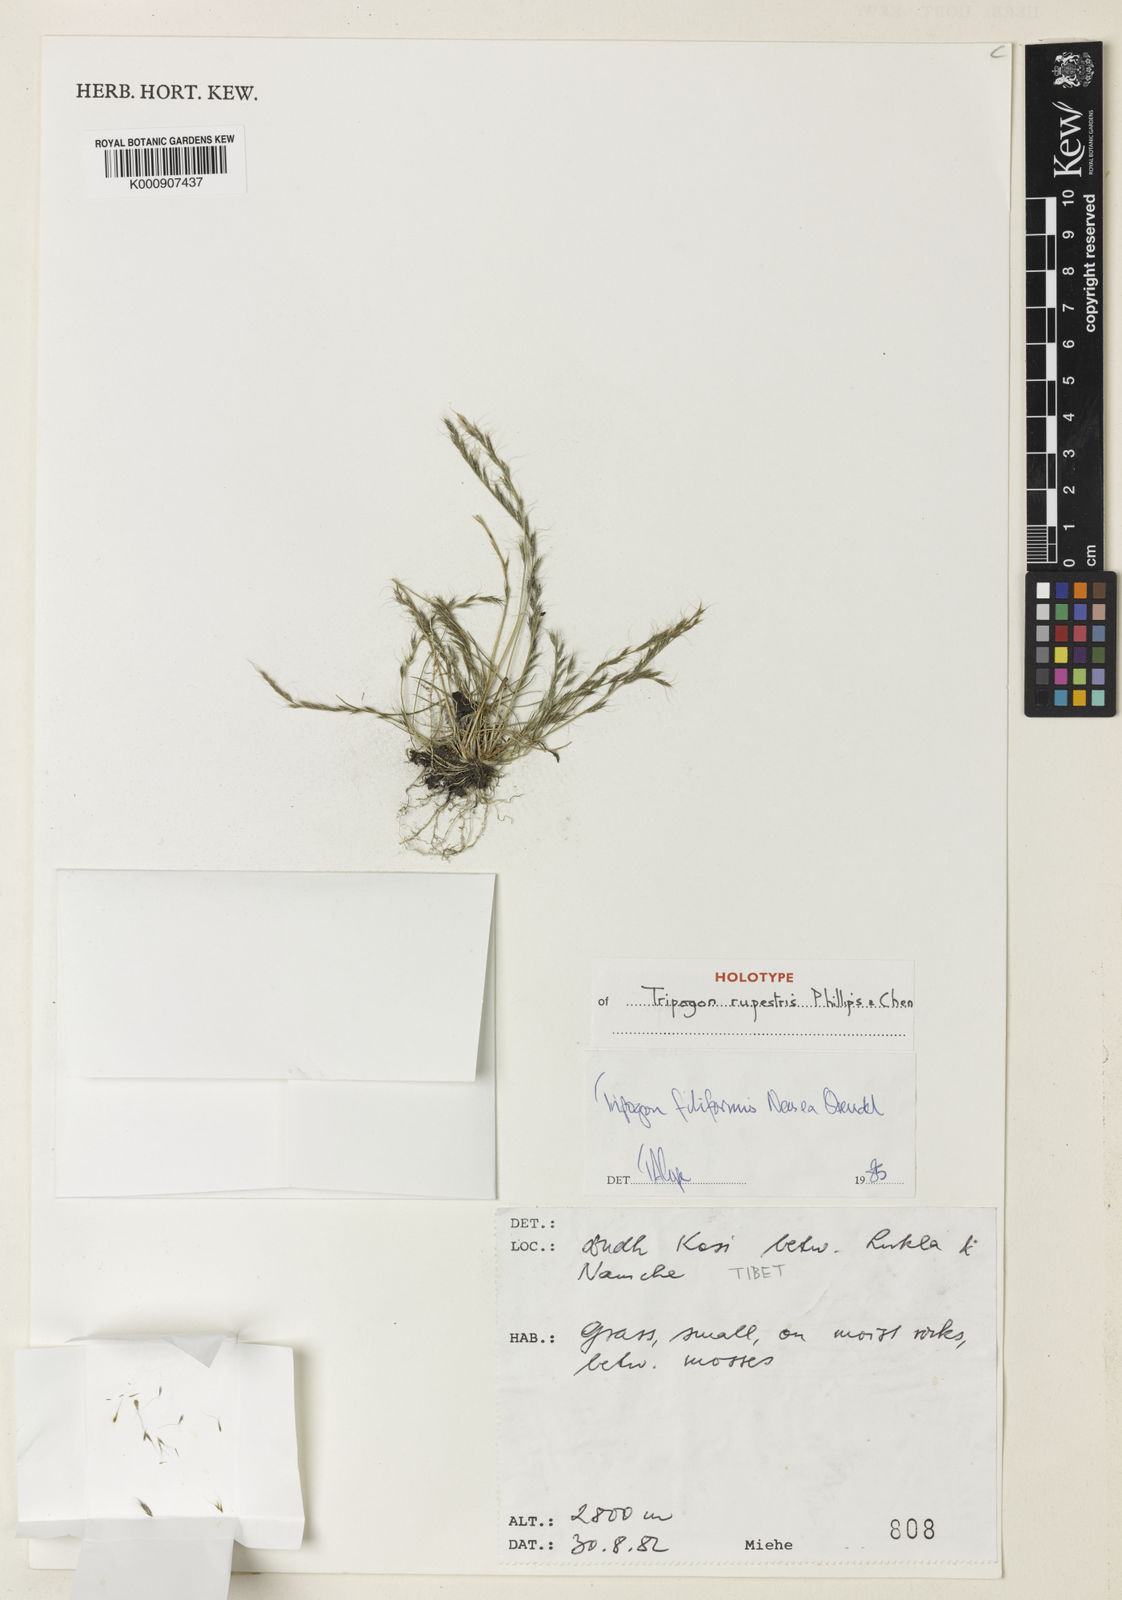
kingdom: Plantae
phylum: Tracheophyta
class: Magnoliopsida
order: Myrtales
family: Lythraceae
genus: Cuphea
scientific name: Cuphea acinos
